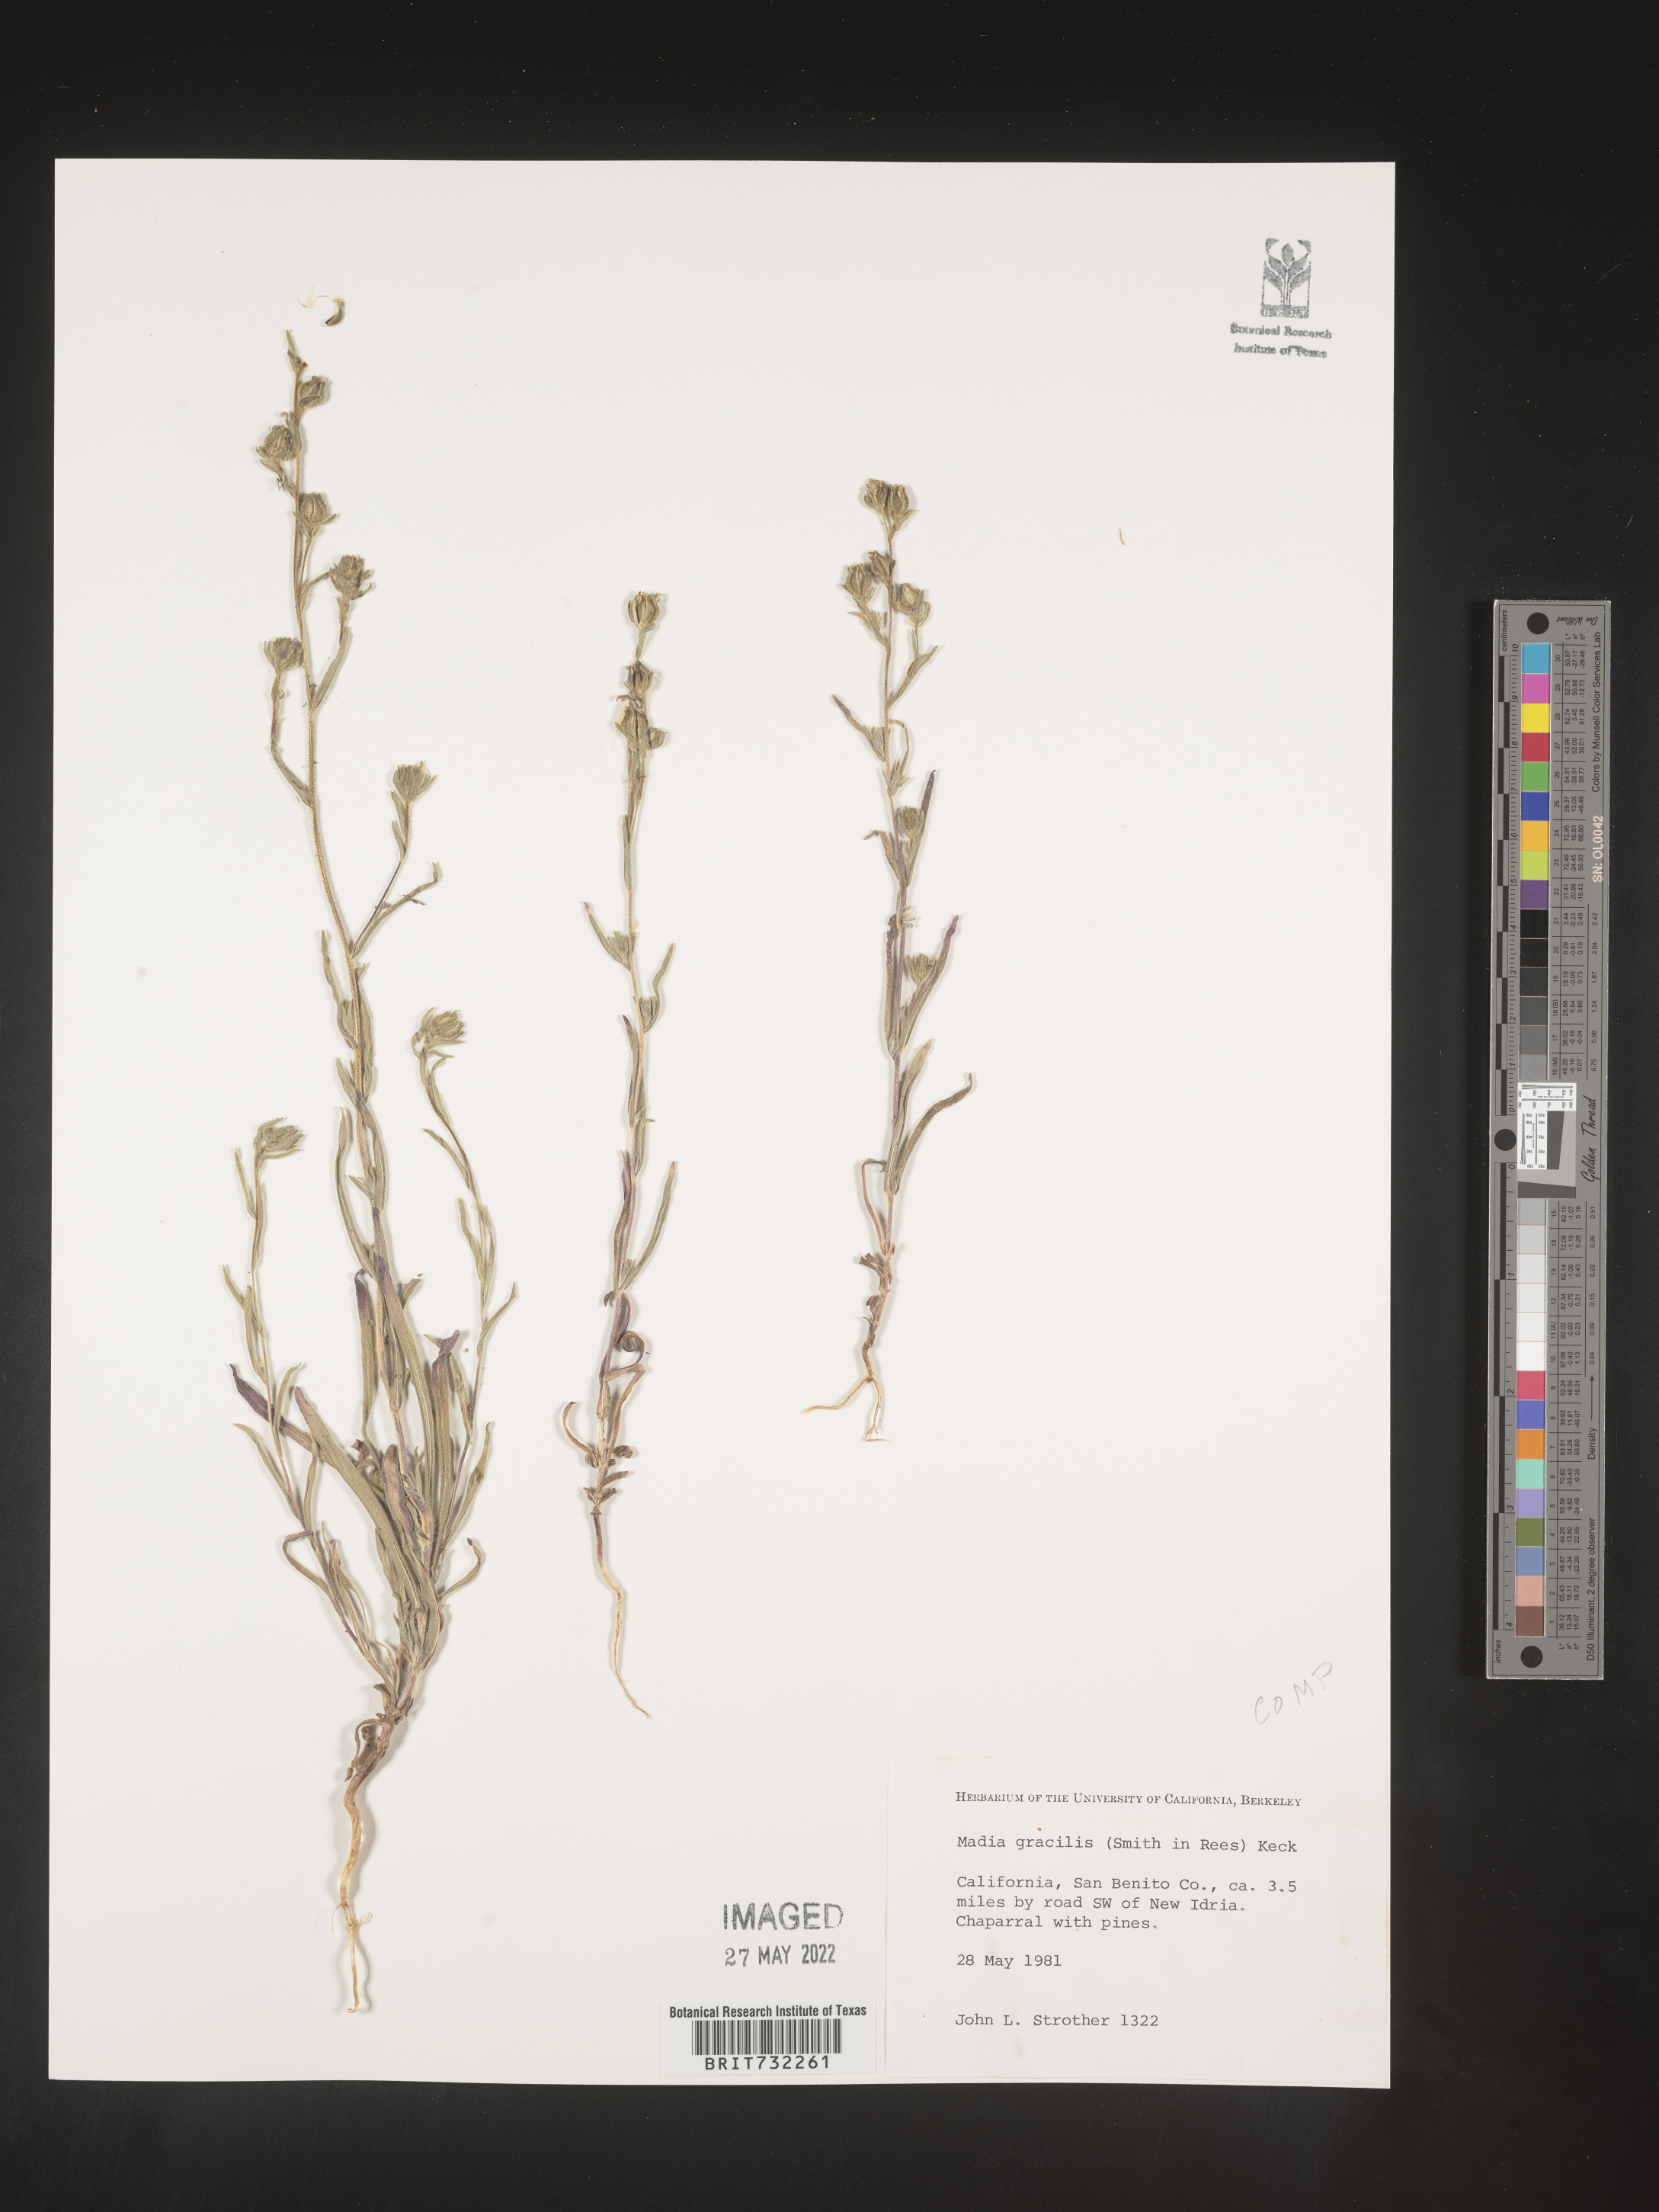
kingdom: Plantae
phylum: Tracheophyta
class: Magnoliopsida
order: Asterales
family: Asteraceae
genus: Madia
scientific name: Madia gracilis
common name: Grassy tarweed
